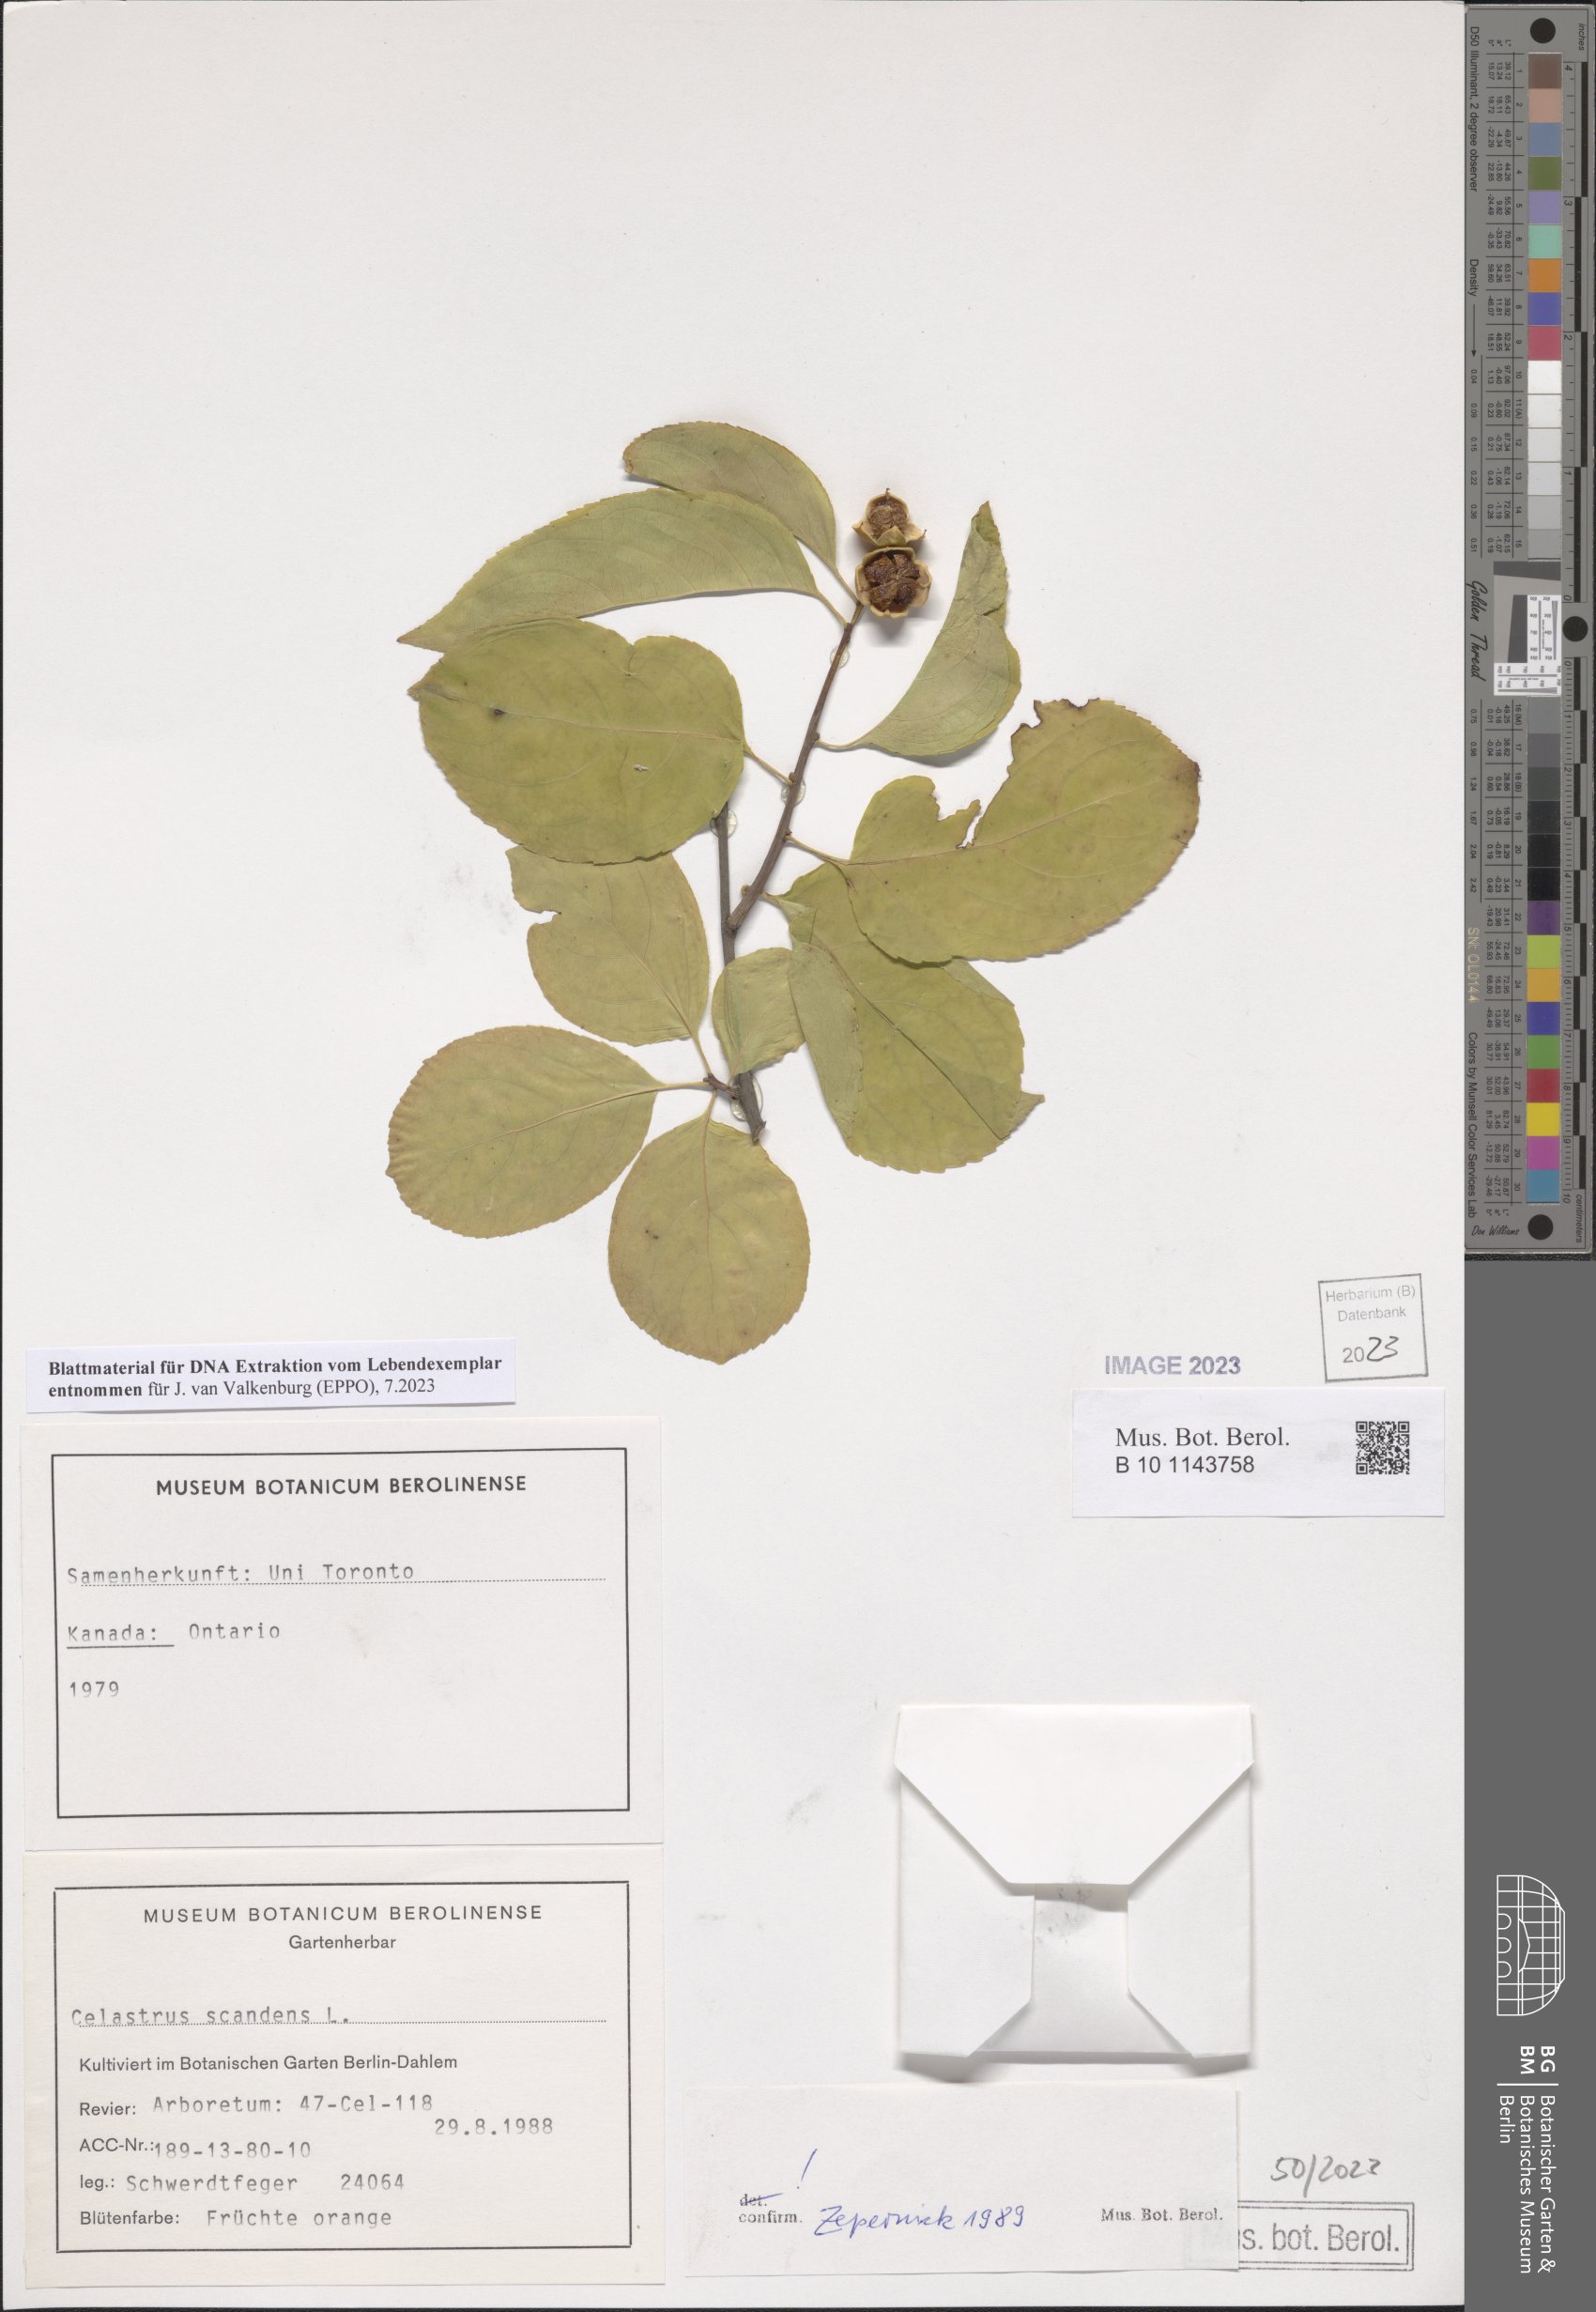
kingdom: Plantae
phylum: Tracheophyta
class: Magnoliopsida
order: Celastrales
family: Celastraceae
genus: Celastrus
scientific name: Celastrus scandens
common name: American bittersweet
